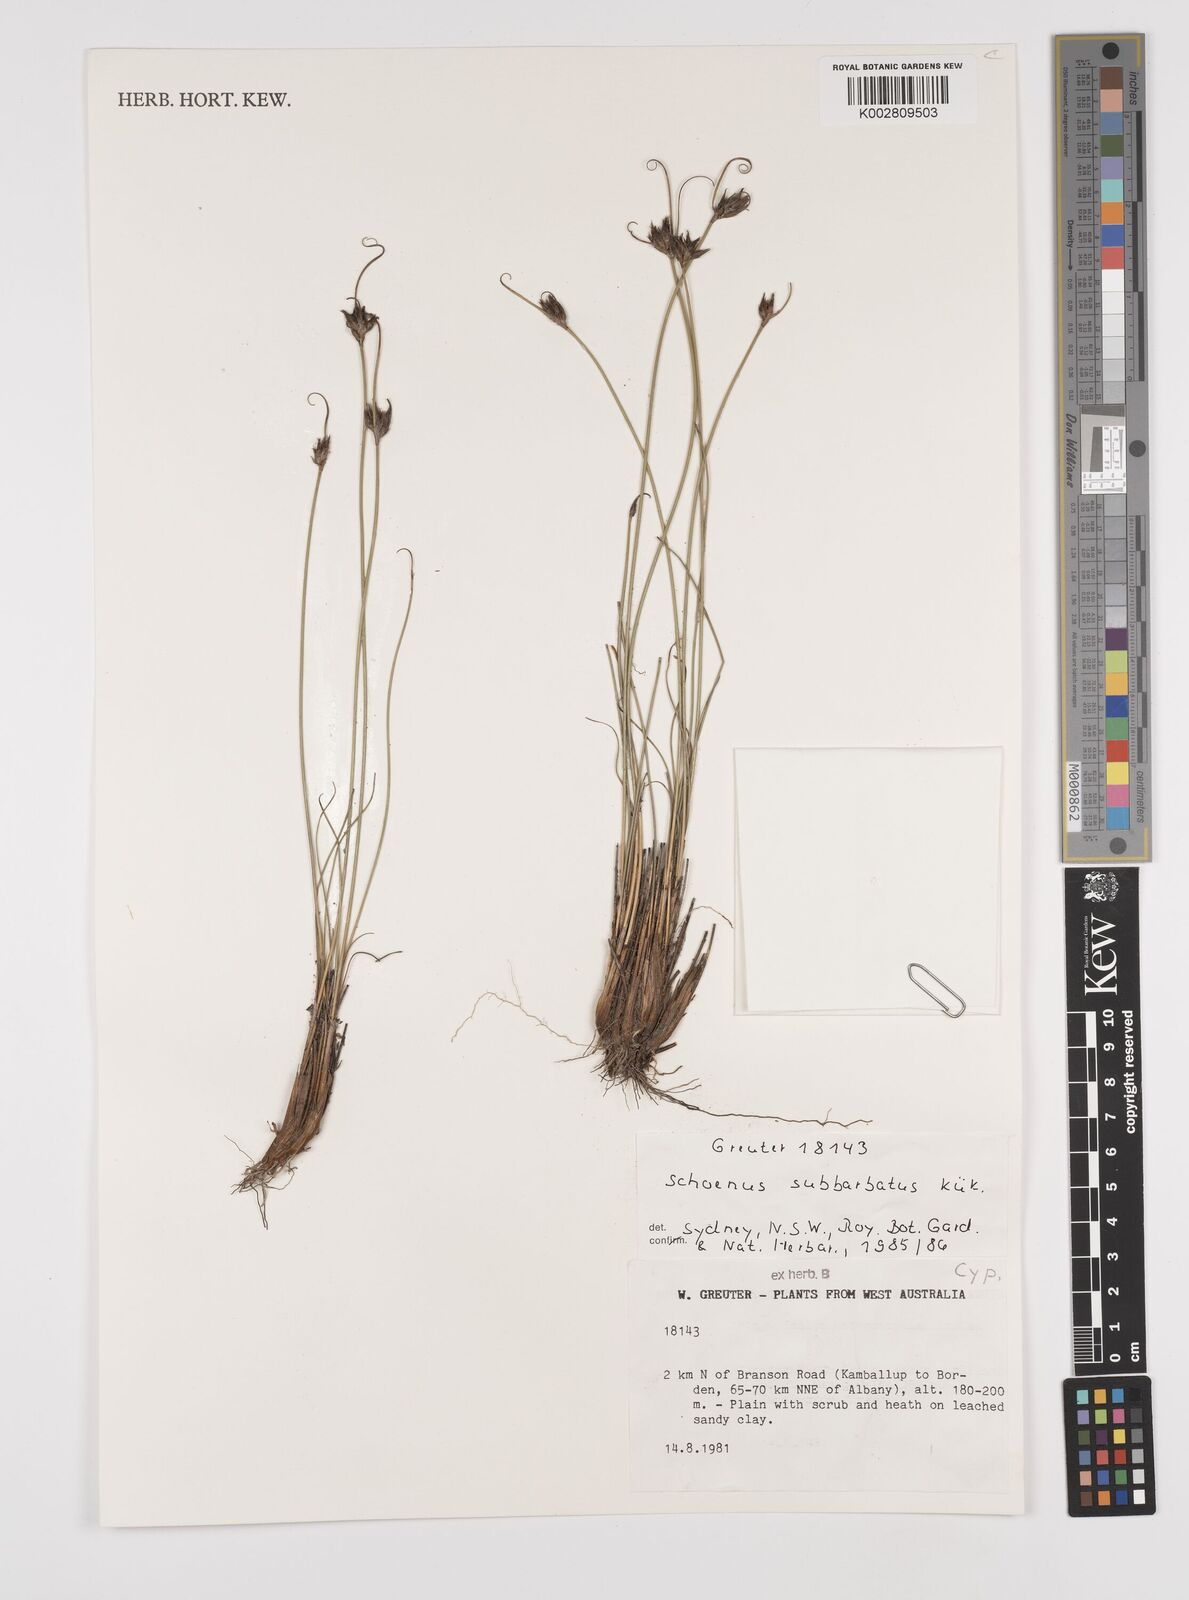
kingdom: Plantae
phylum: Tracheophyta
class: Liliopsida
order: Poales
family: Cyperaceae
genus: Schoenus
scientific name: Schoenus subbarbatus
